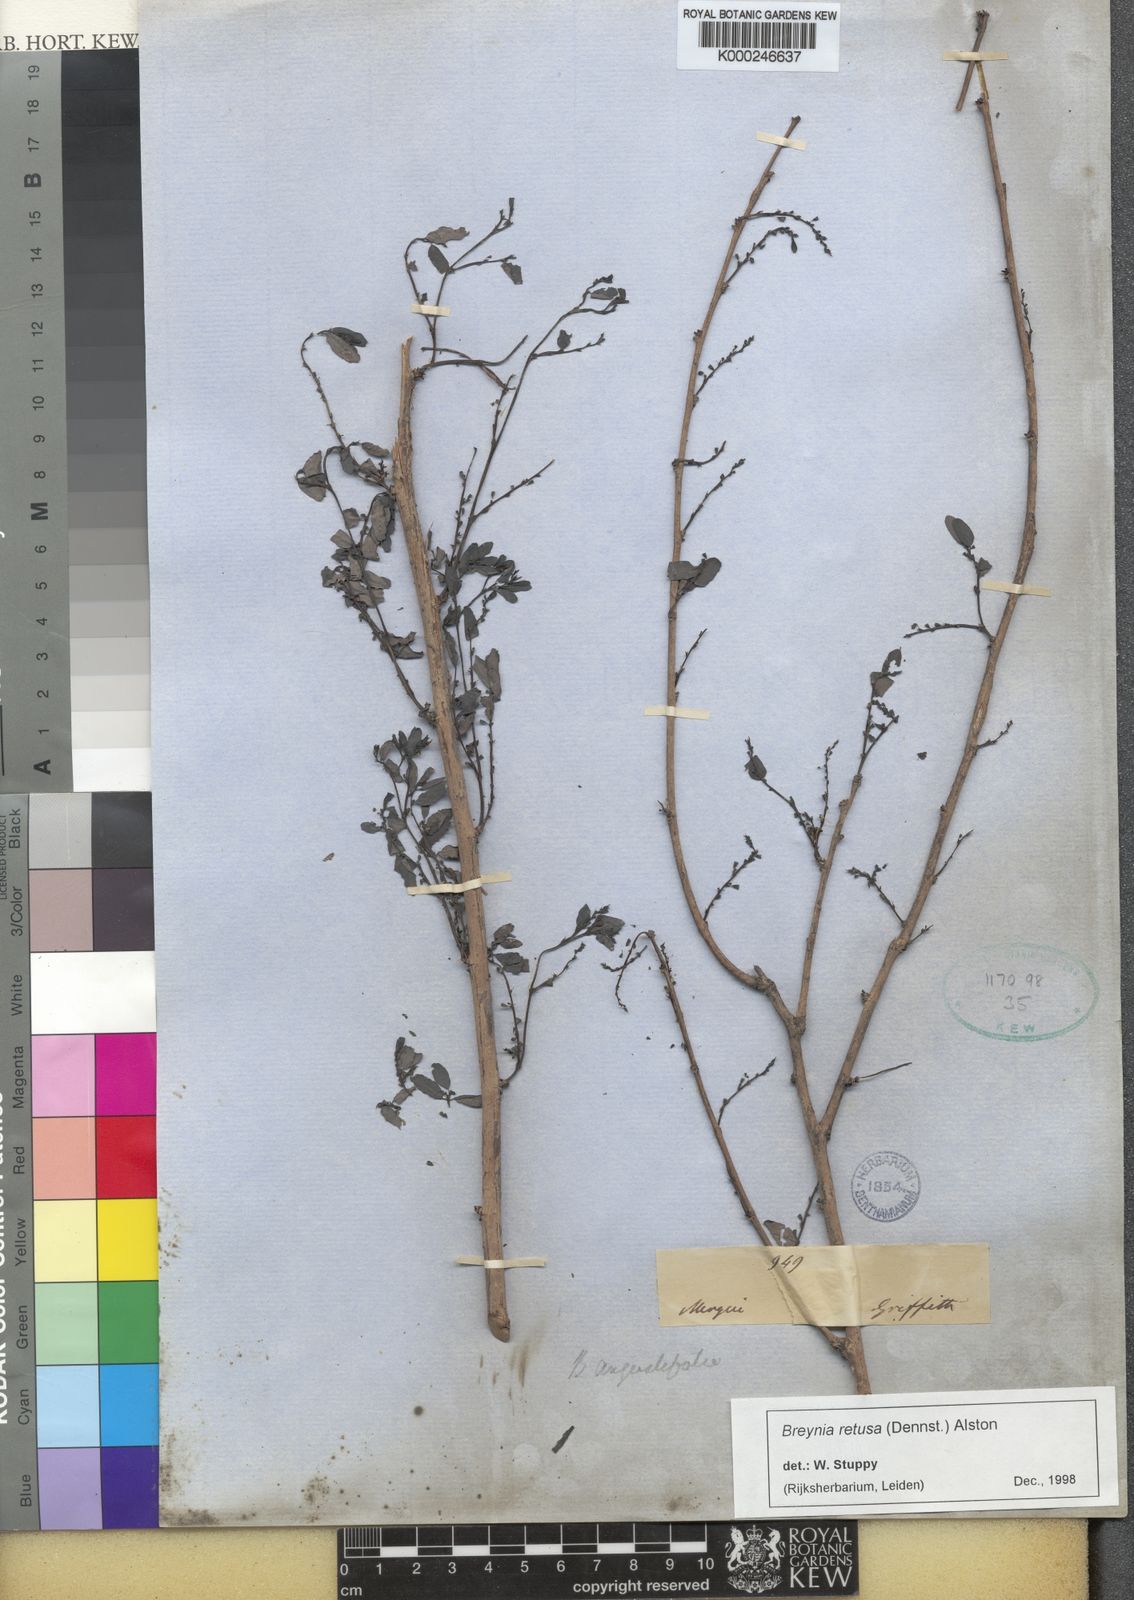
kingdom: Plantae
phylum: Tracheophyta
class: Magnoliopsida
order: Malpighiales
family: Phyllanthaceae
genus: Breynia
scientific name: Breynia retusa
